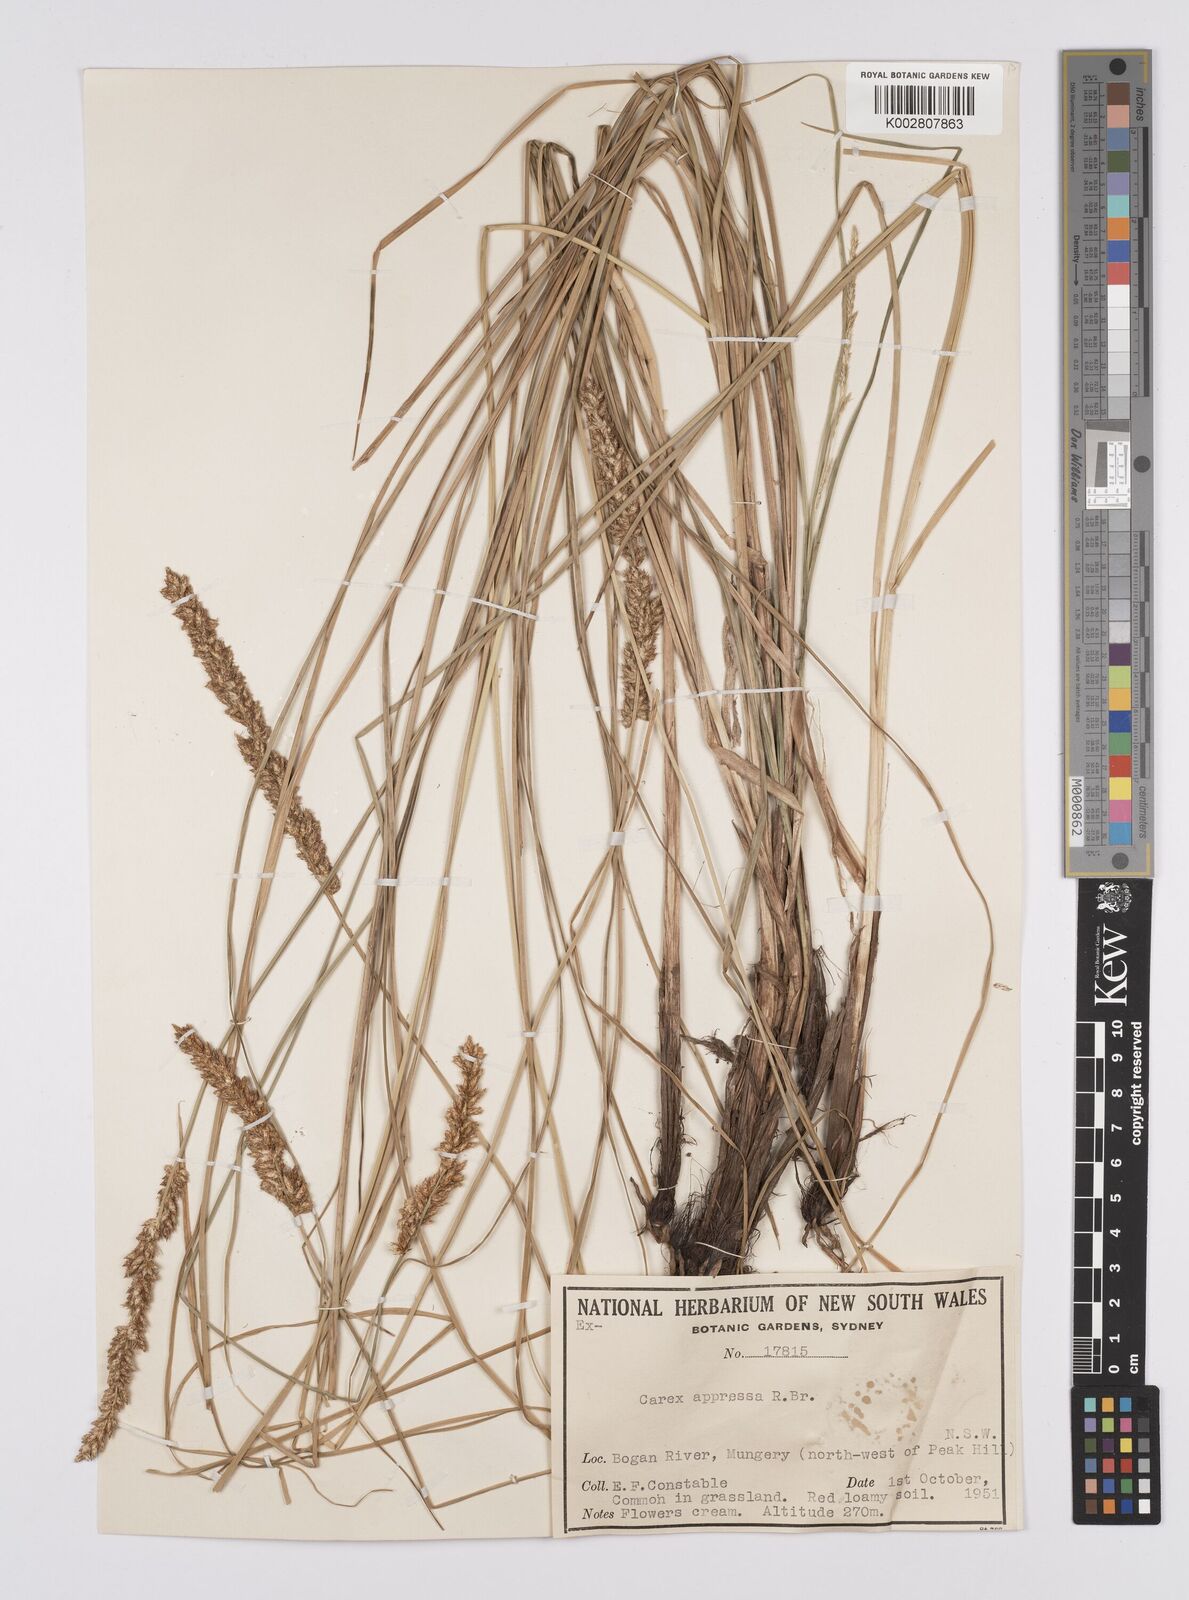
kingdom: Plantae
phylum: Tracheophyta
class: Liliopsida
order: Poales
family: Cyperaceae
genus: Carex
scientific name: Carex appressa
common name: Tussock sedge
